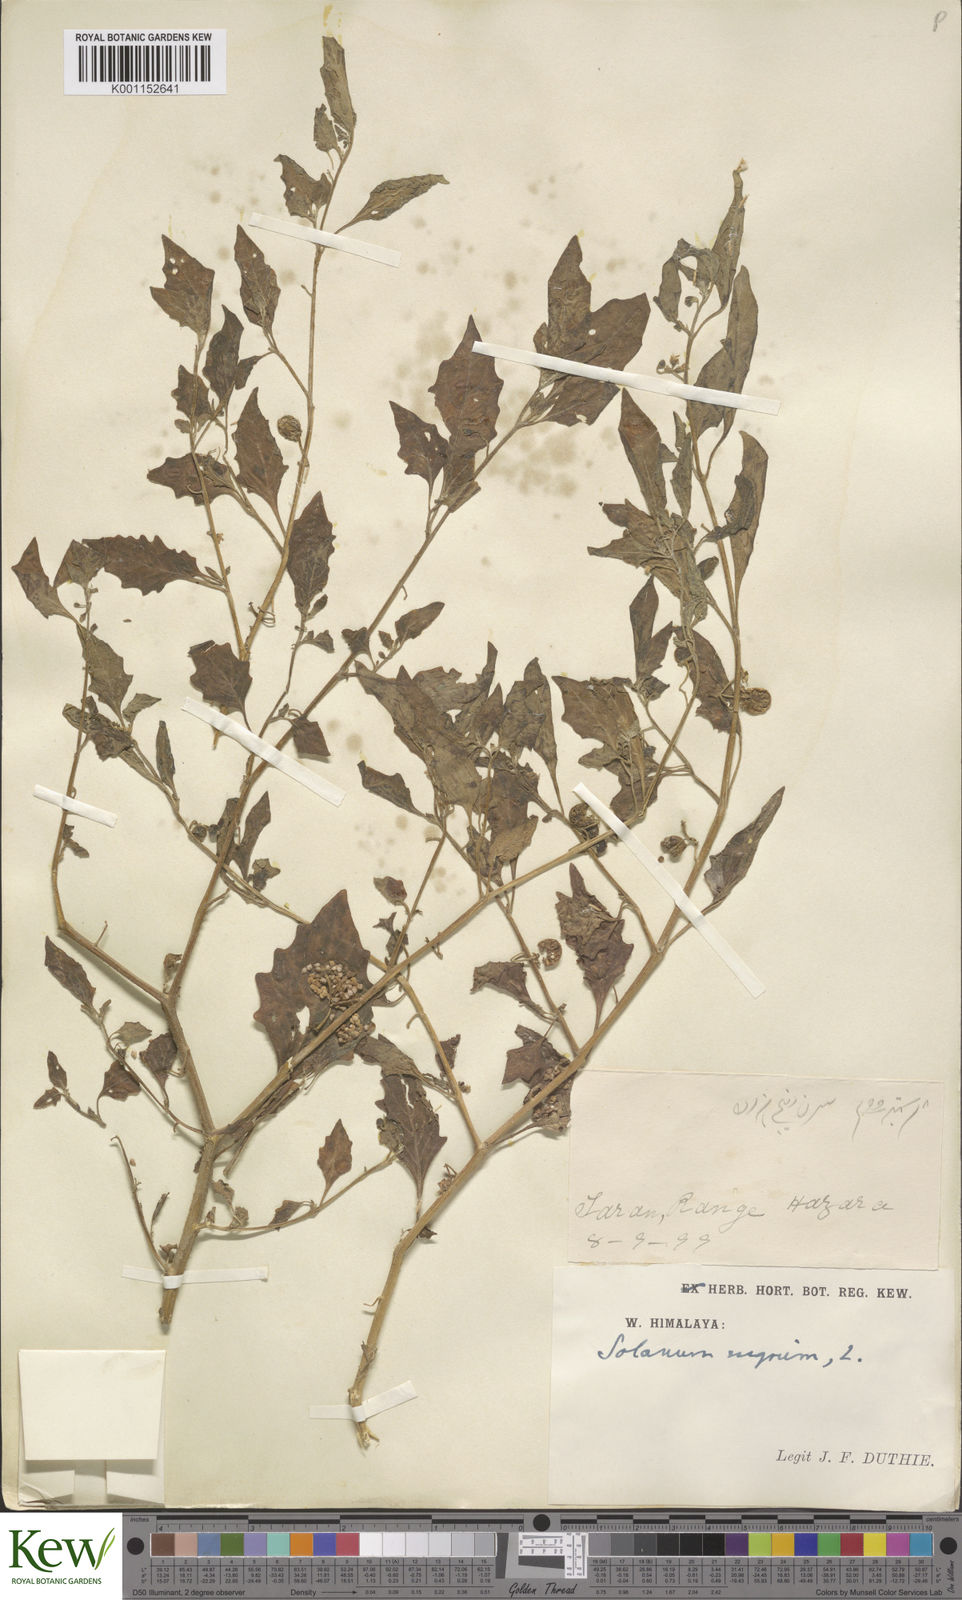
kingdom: Plantae
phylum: Tracheophyta
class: Magnoliopsida
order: Solanales
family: Solanaceae
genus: Solanum
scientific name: Solanum nigrum
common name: Black nightshade
